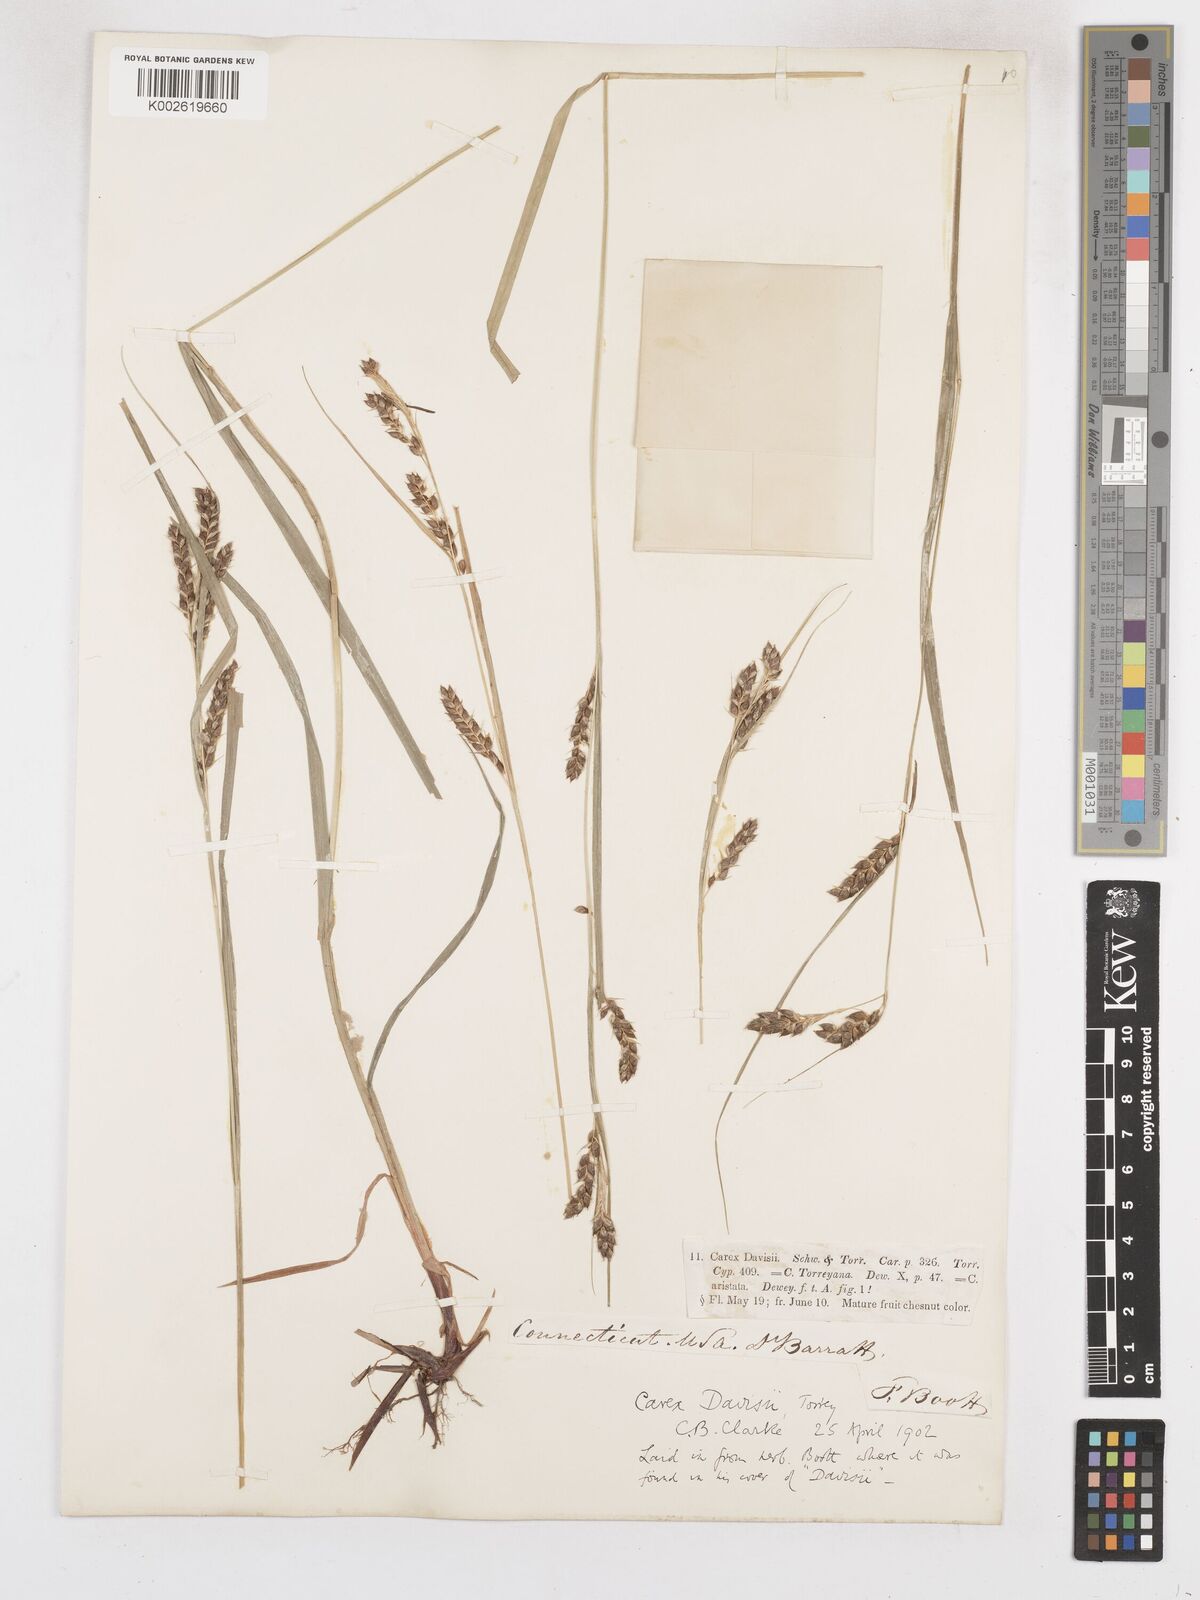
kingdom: Plantae
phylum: Tracheophyta
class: Liliopsida
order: Poales
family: Cyperaceae
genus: Carex
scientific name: Carex davisii
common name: Davis' sedge
